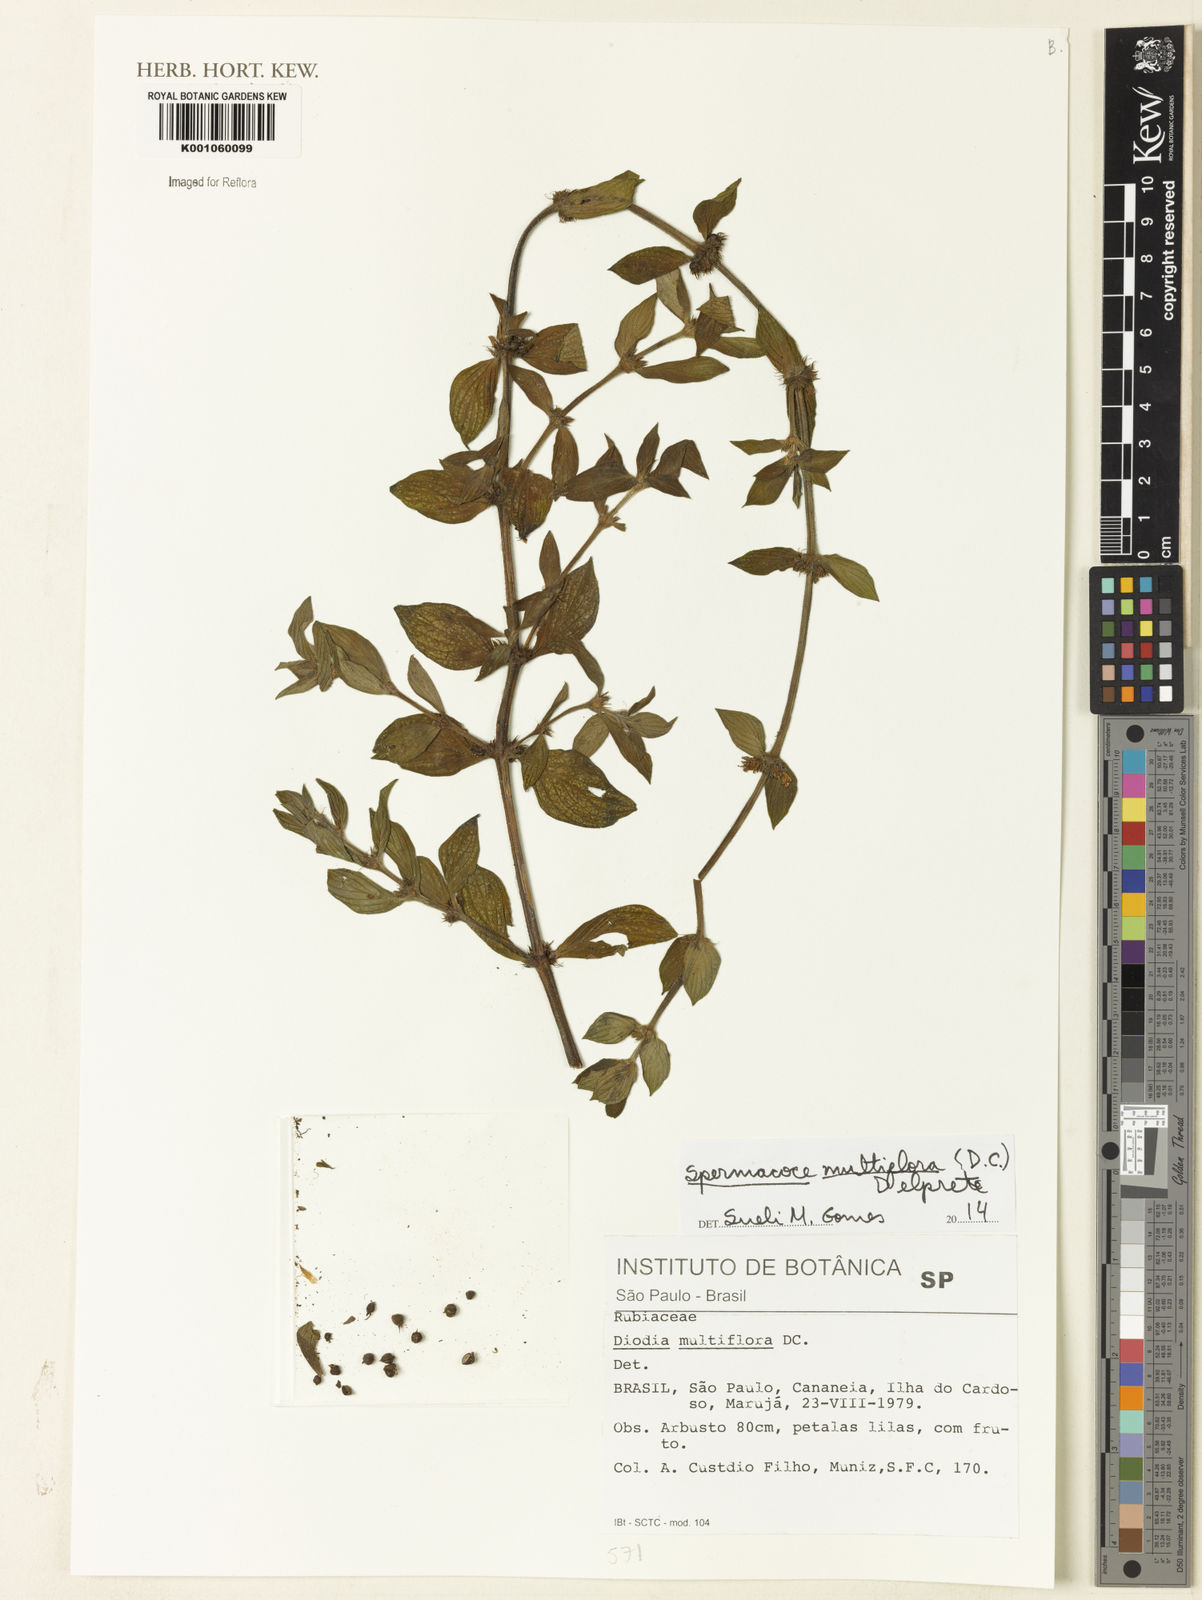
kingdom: Plantae
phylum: Tracheophyta
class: Magnoliopsida
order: Gentianales
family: Rubiaceae
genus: Spermacoce
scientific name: Spermacoce multiflora
